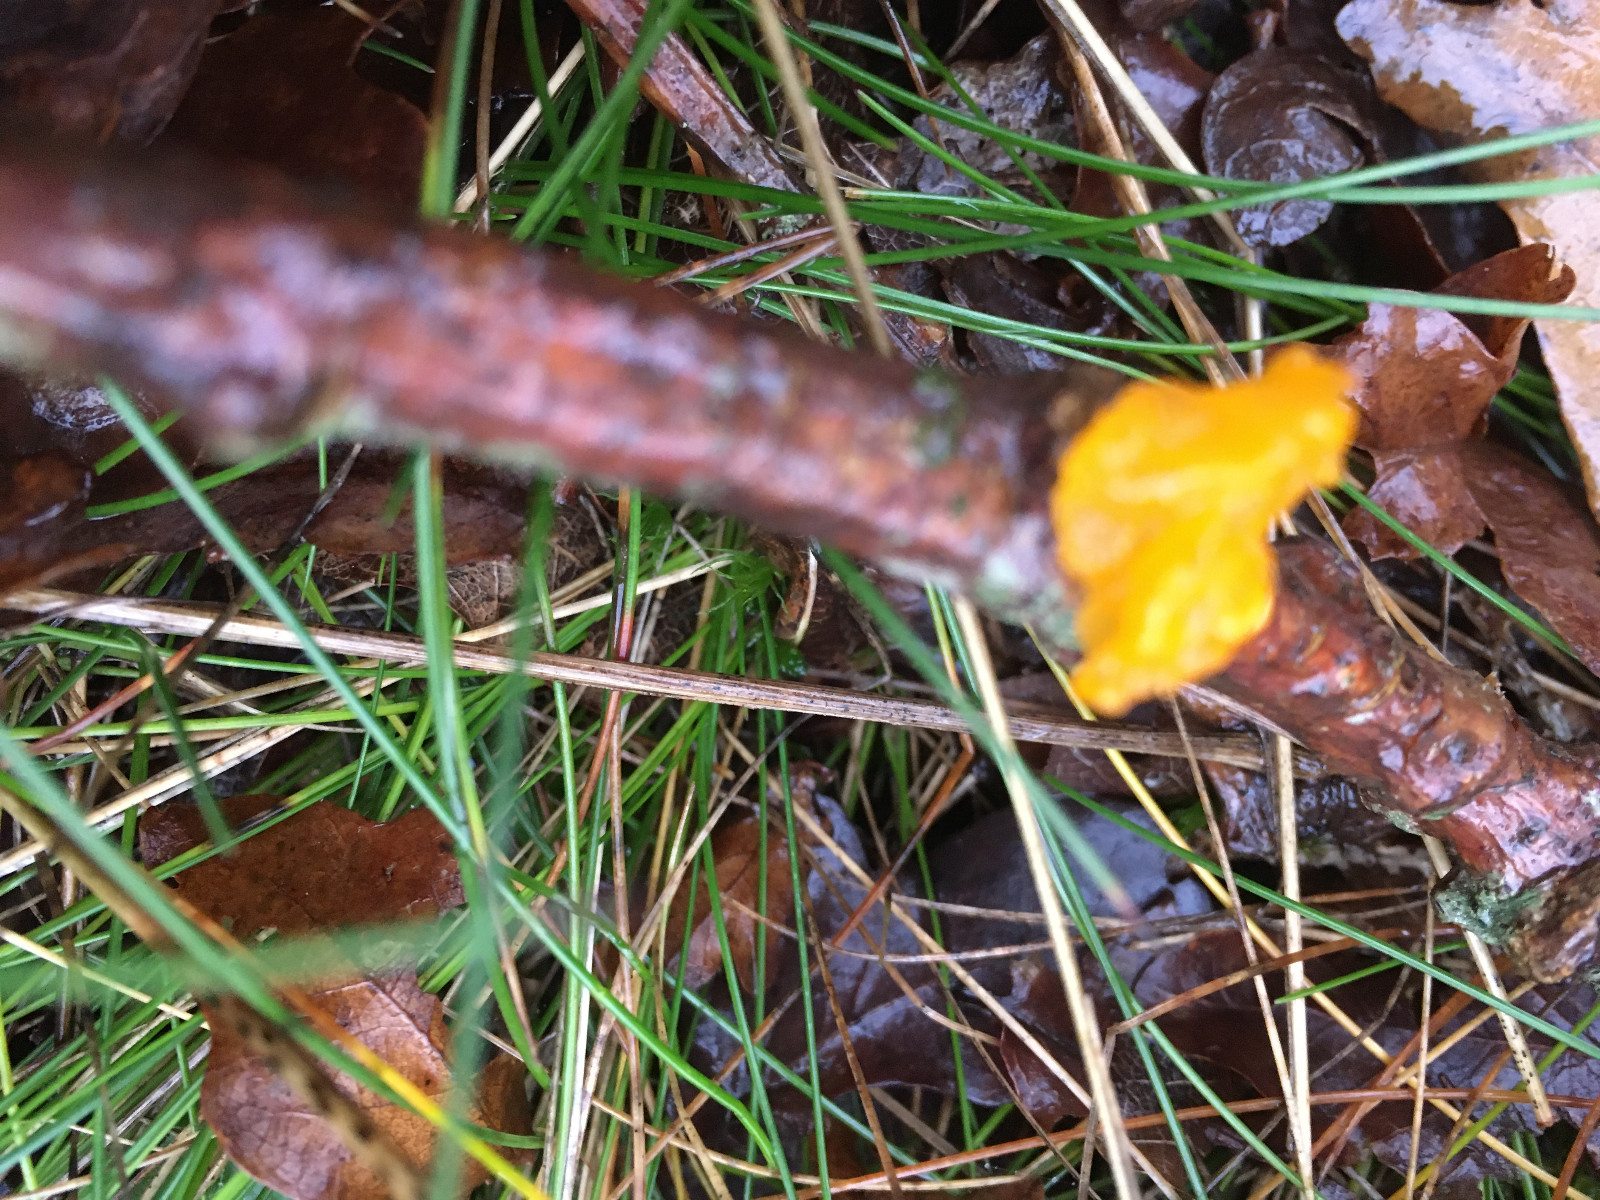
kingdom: Fungi
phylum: Basidiomycota
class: Tremellomycetes
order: Tremellales
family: Tremellaceae
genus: Tremella
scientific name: Tremella mesenterica
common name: gul bævresvamp
